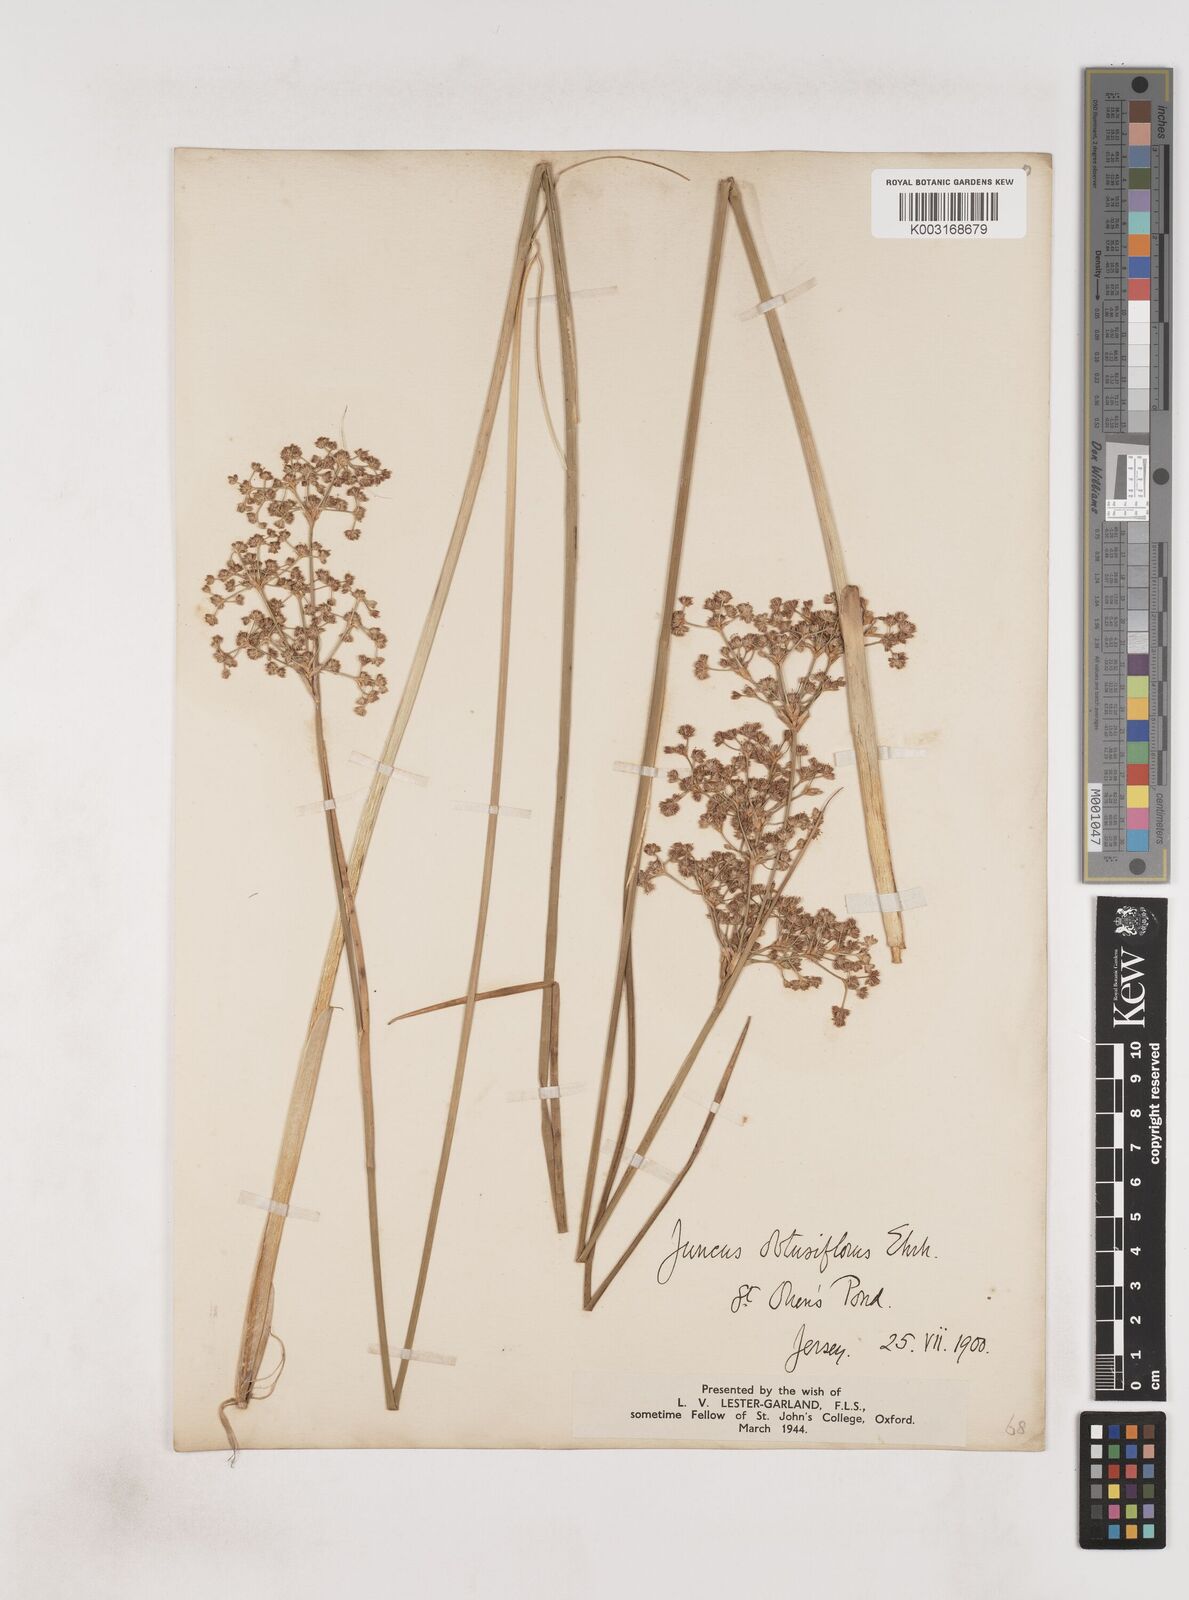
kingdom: Plantae
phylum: Tracheophyta
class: Liliopsida
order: Poales
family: Juncaceae
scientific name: Juncaceae
